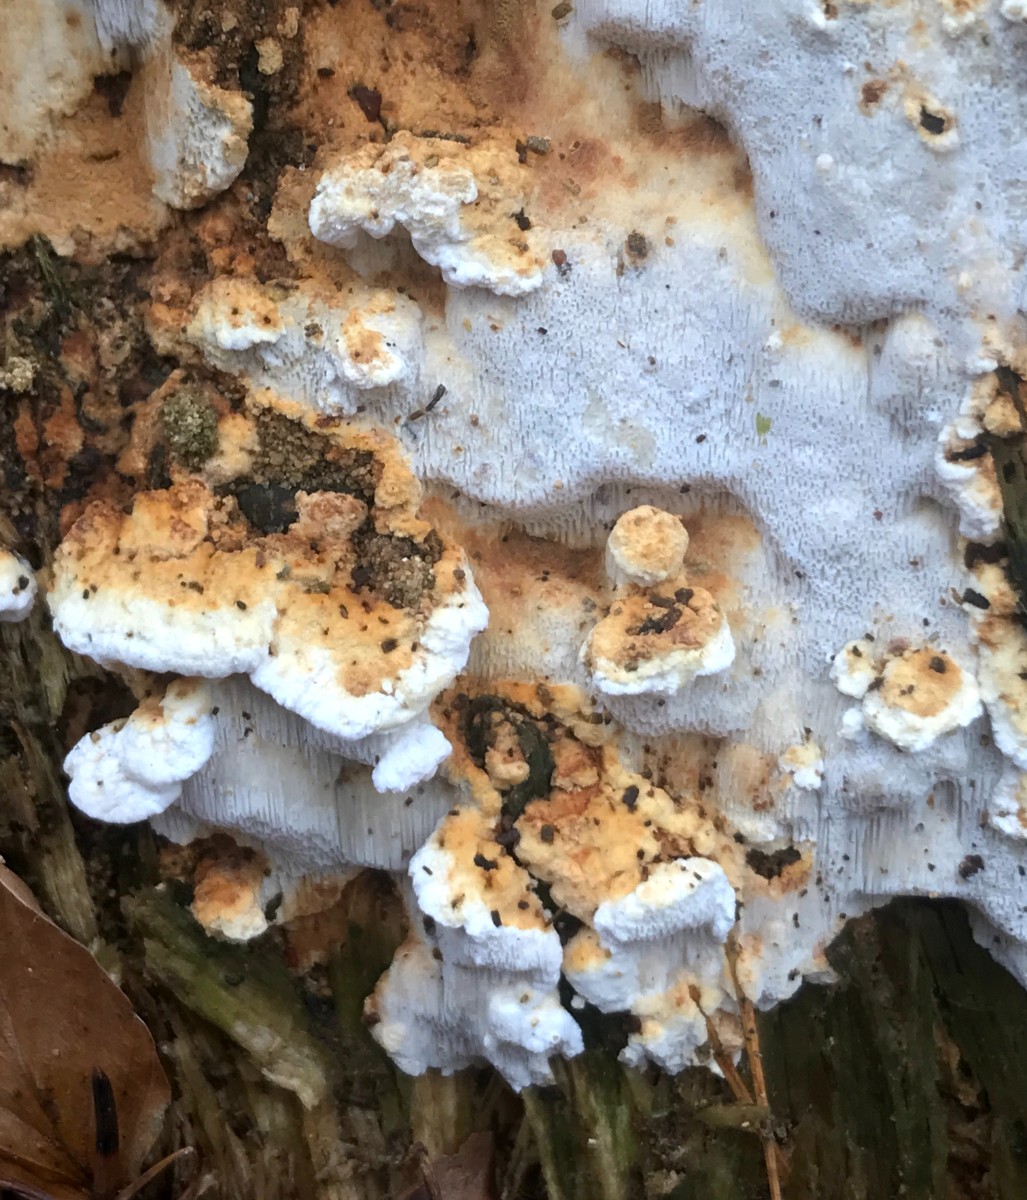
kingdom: Fungi
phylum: Basidiomycota
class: Agaricomycetes
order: Polyporales
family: Fomitopsidaceae
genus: Neoantrodia
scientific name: Neoantrodia serialis
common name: række-sejporesvamp
